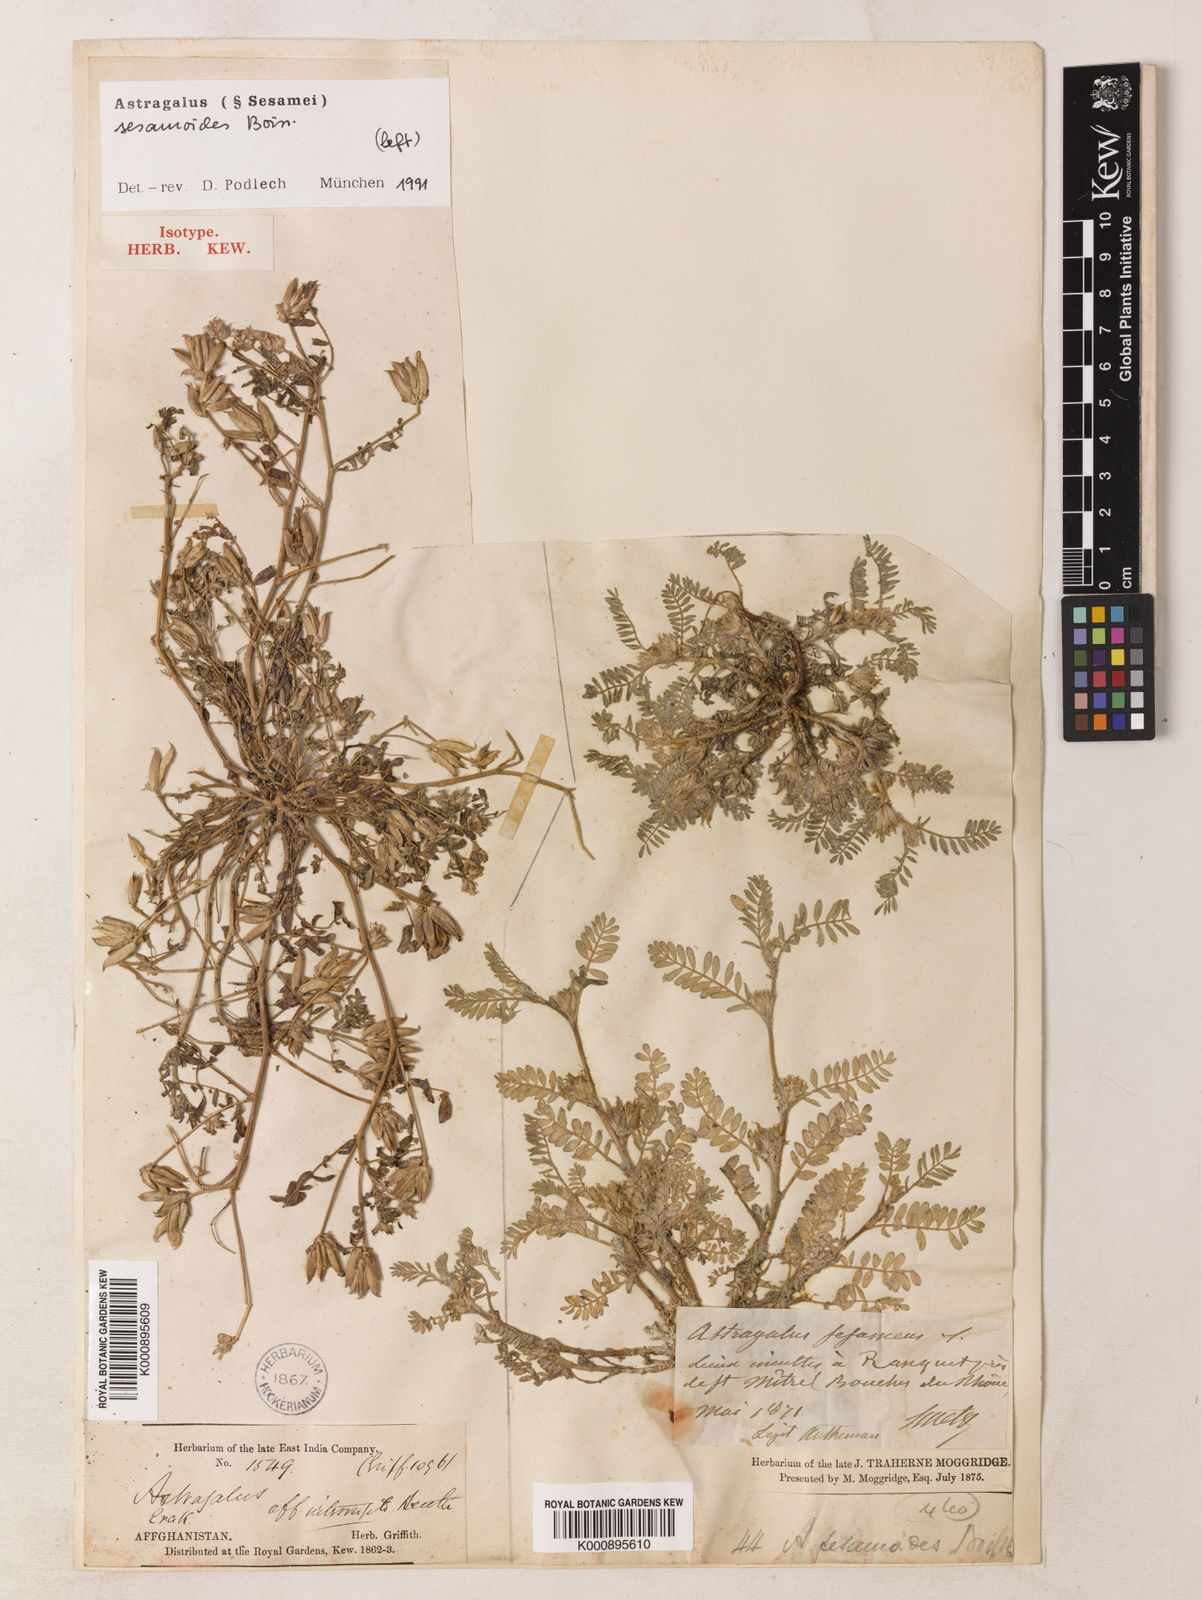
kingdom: Plantae
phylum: Tracheophyta
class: Magnoliopsida
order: Fabales
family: Fabaceae
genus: Astragalus
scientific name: Astragalus sesamoides
